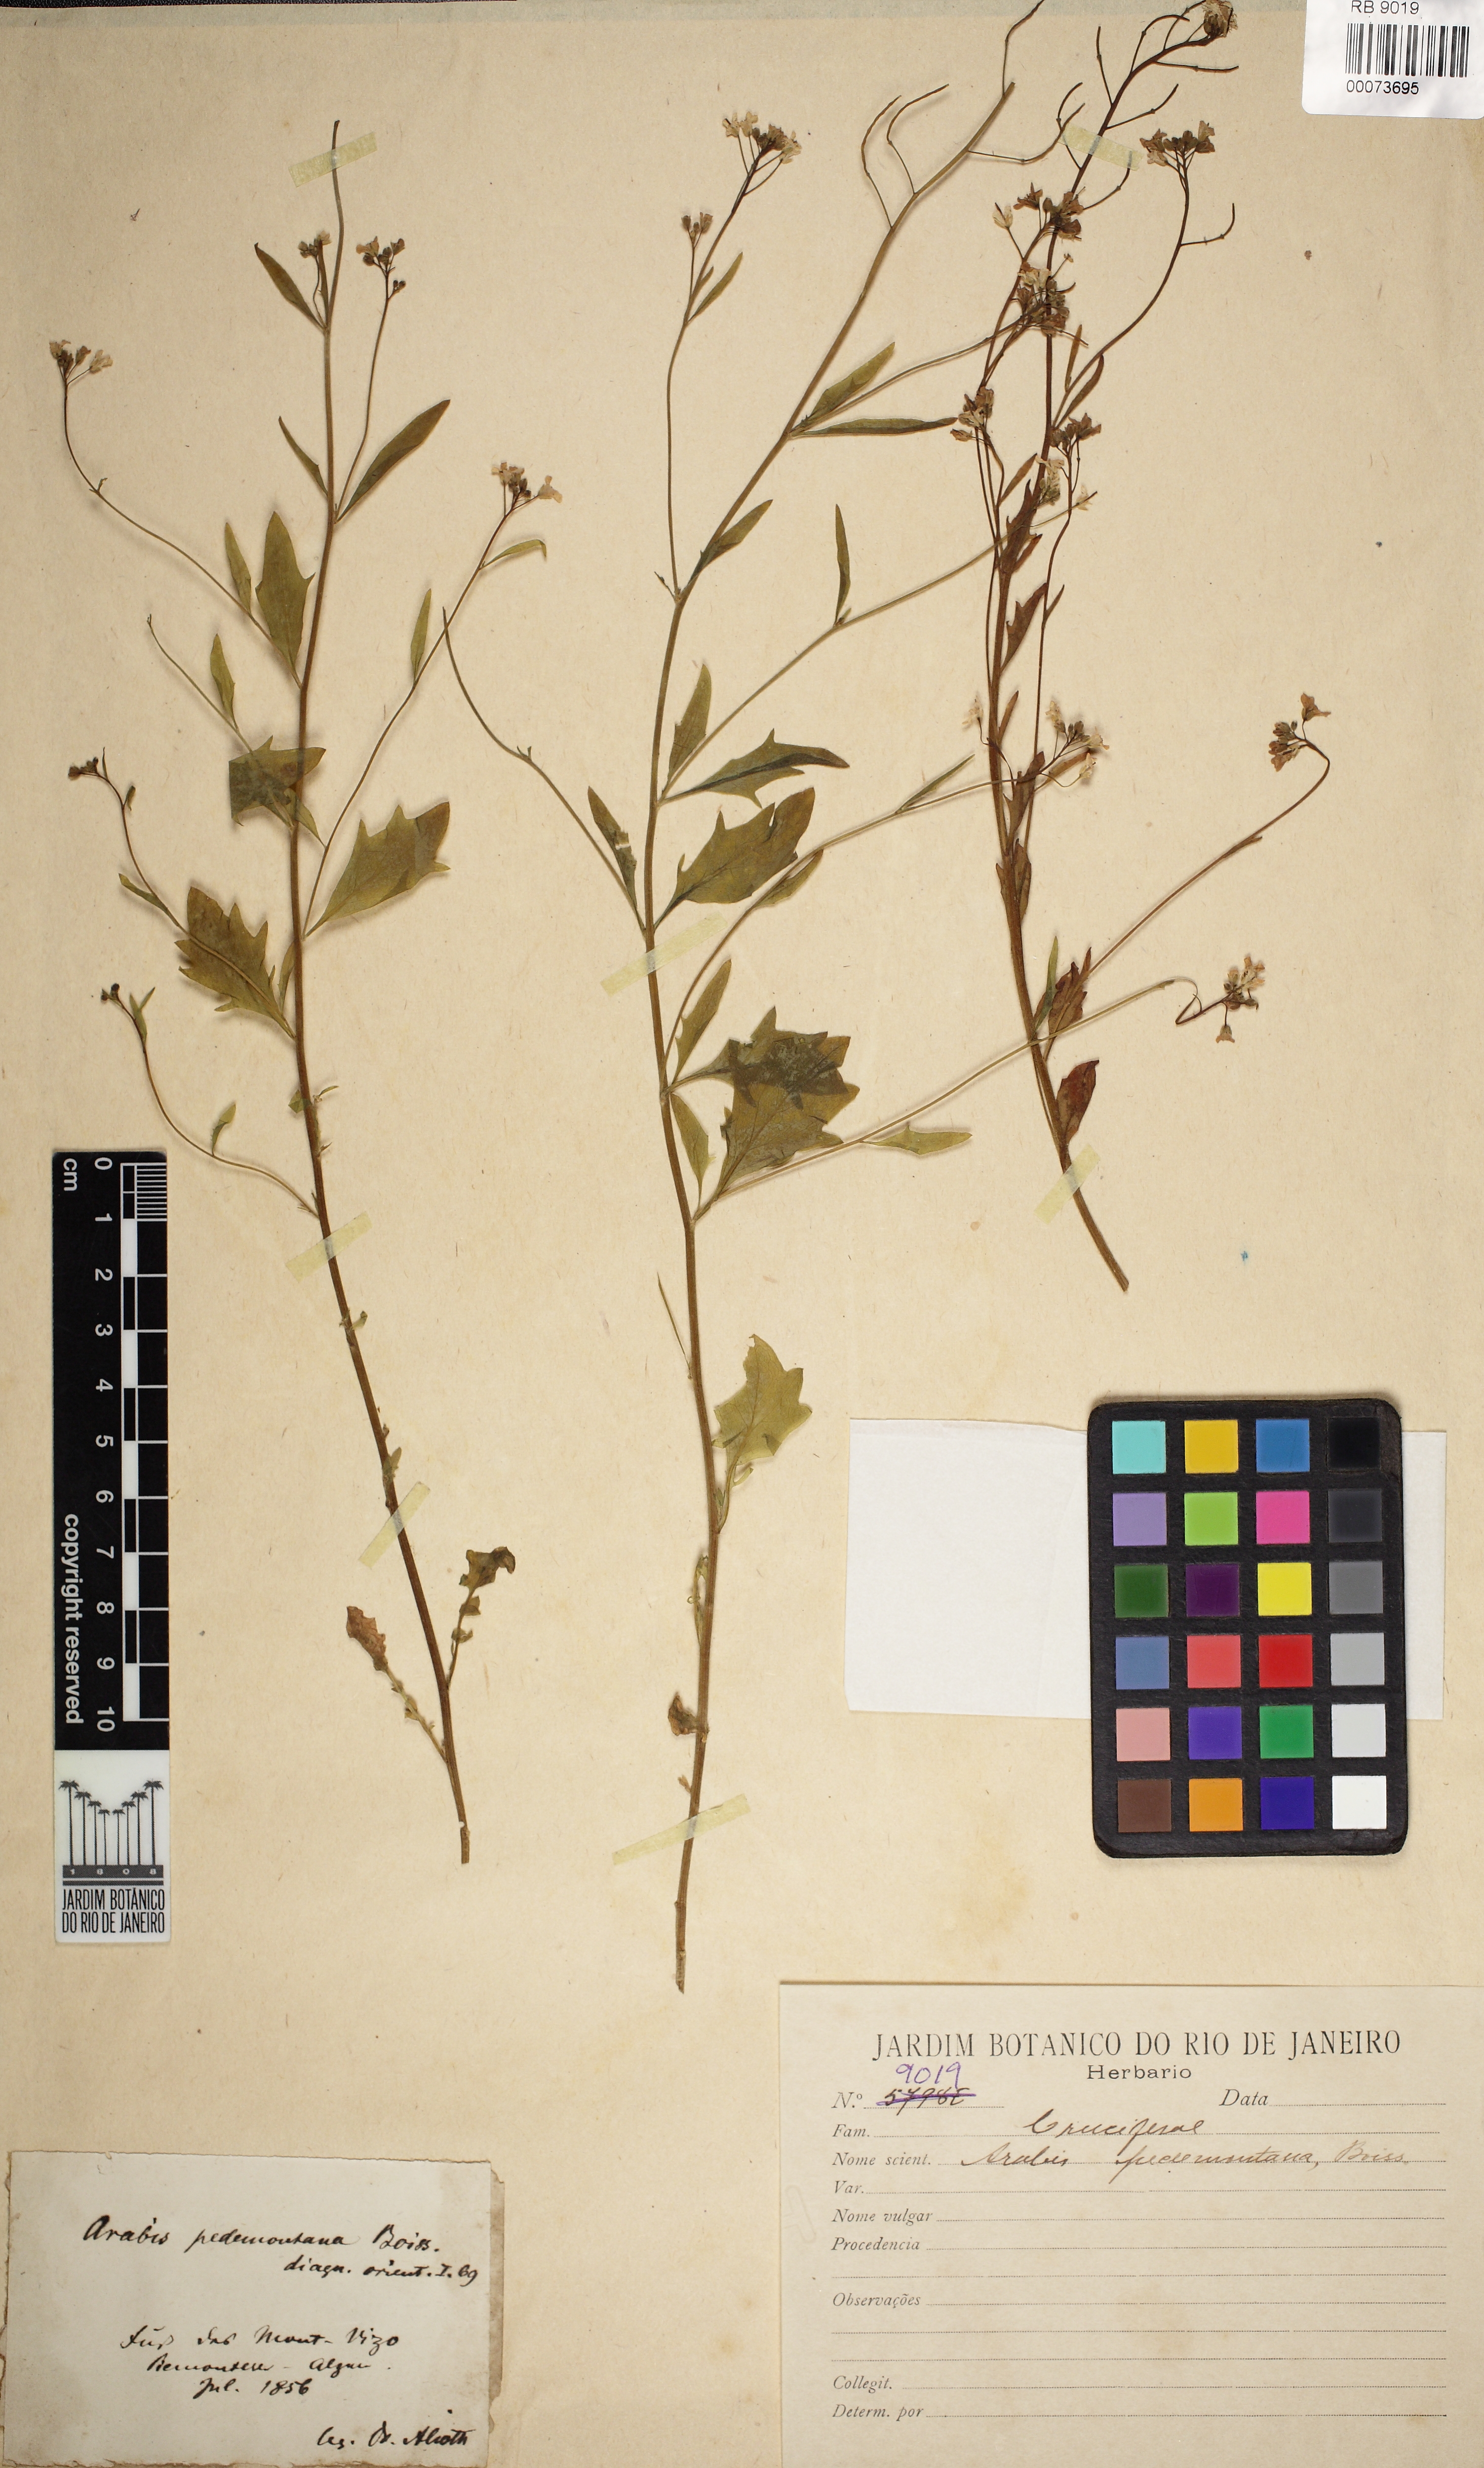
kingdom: Plantae
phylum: Tracheophyta
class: Magnoliopsida
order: Brassicales
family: Brassicaceae
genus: Arabidopsis
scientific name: Arabidopsis pedemontana
